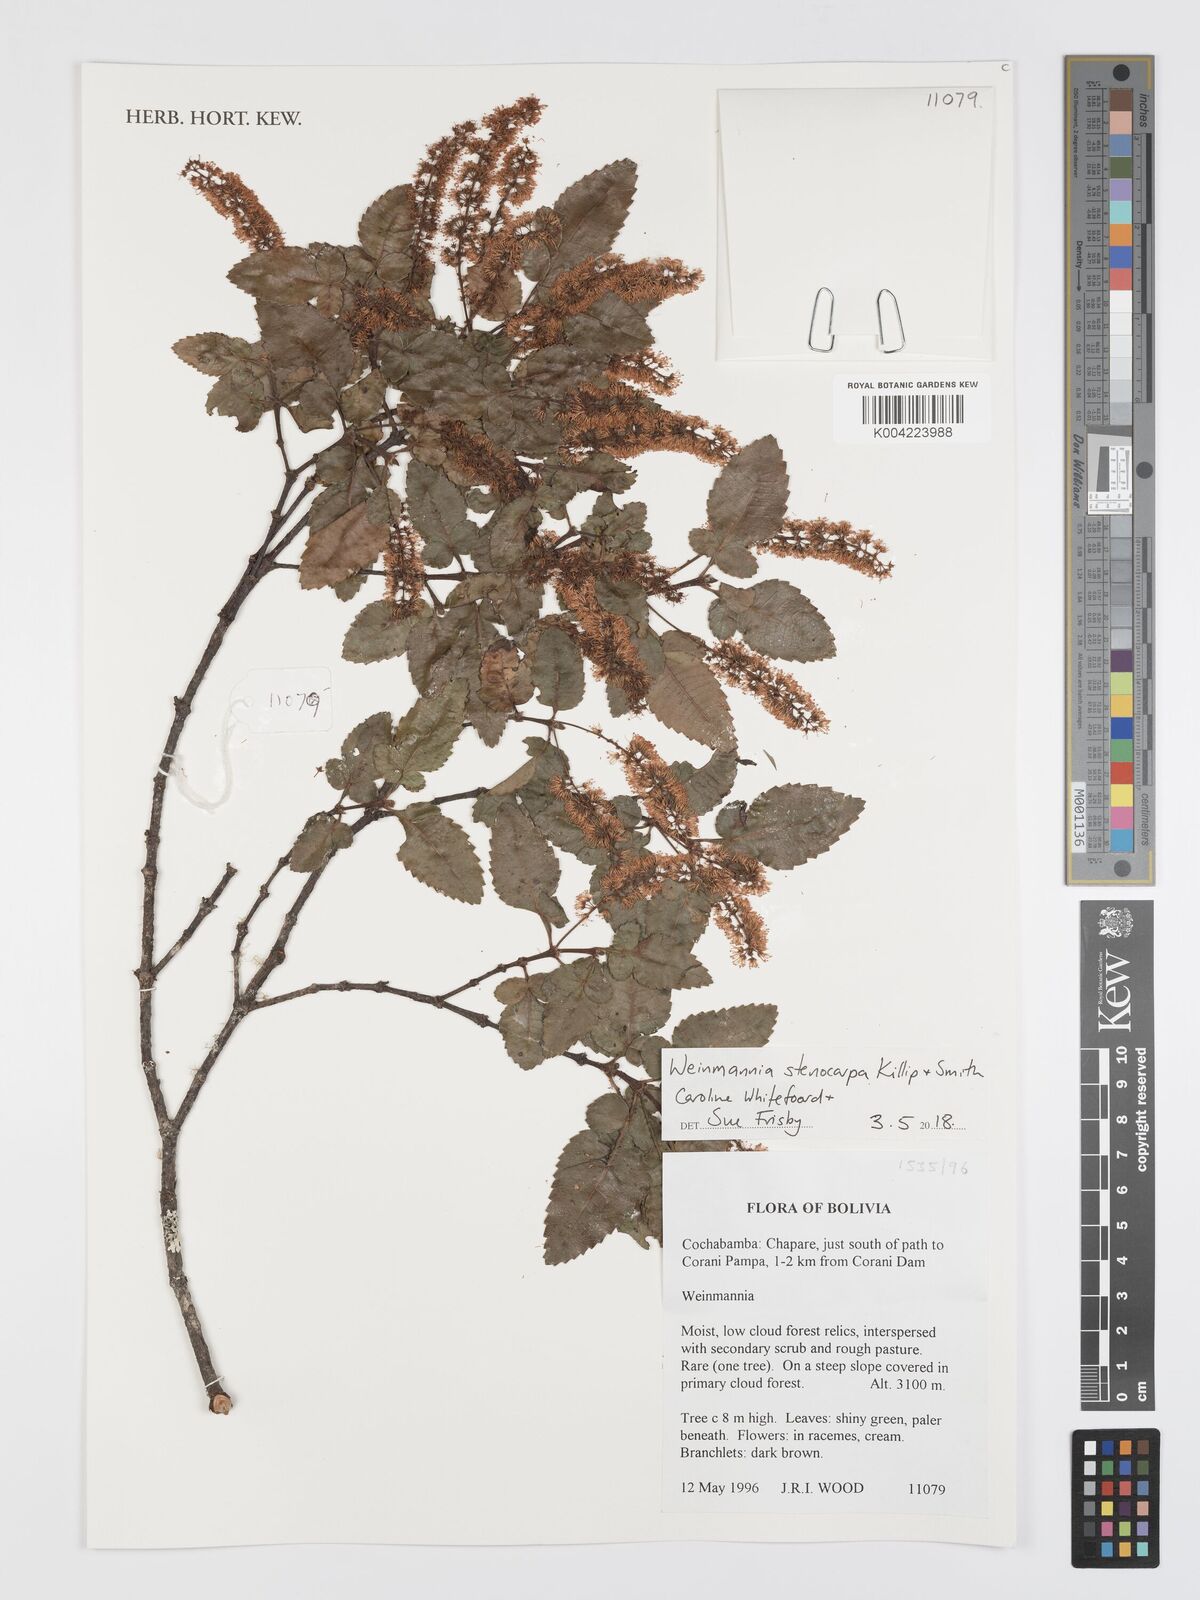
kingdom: Plantae
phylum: Tracheophyta
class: Magnoliopsida
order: Oxalidales
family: Cunoniaceae
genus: Weinmannia
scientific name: Weinmannia stenocarpa
